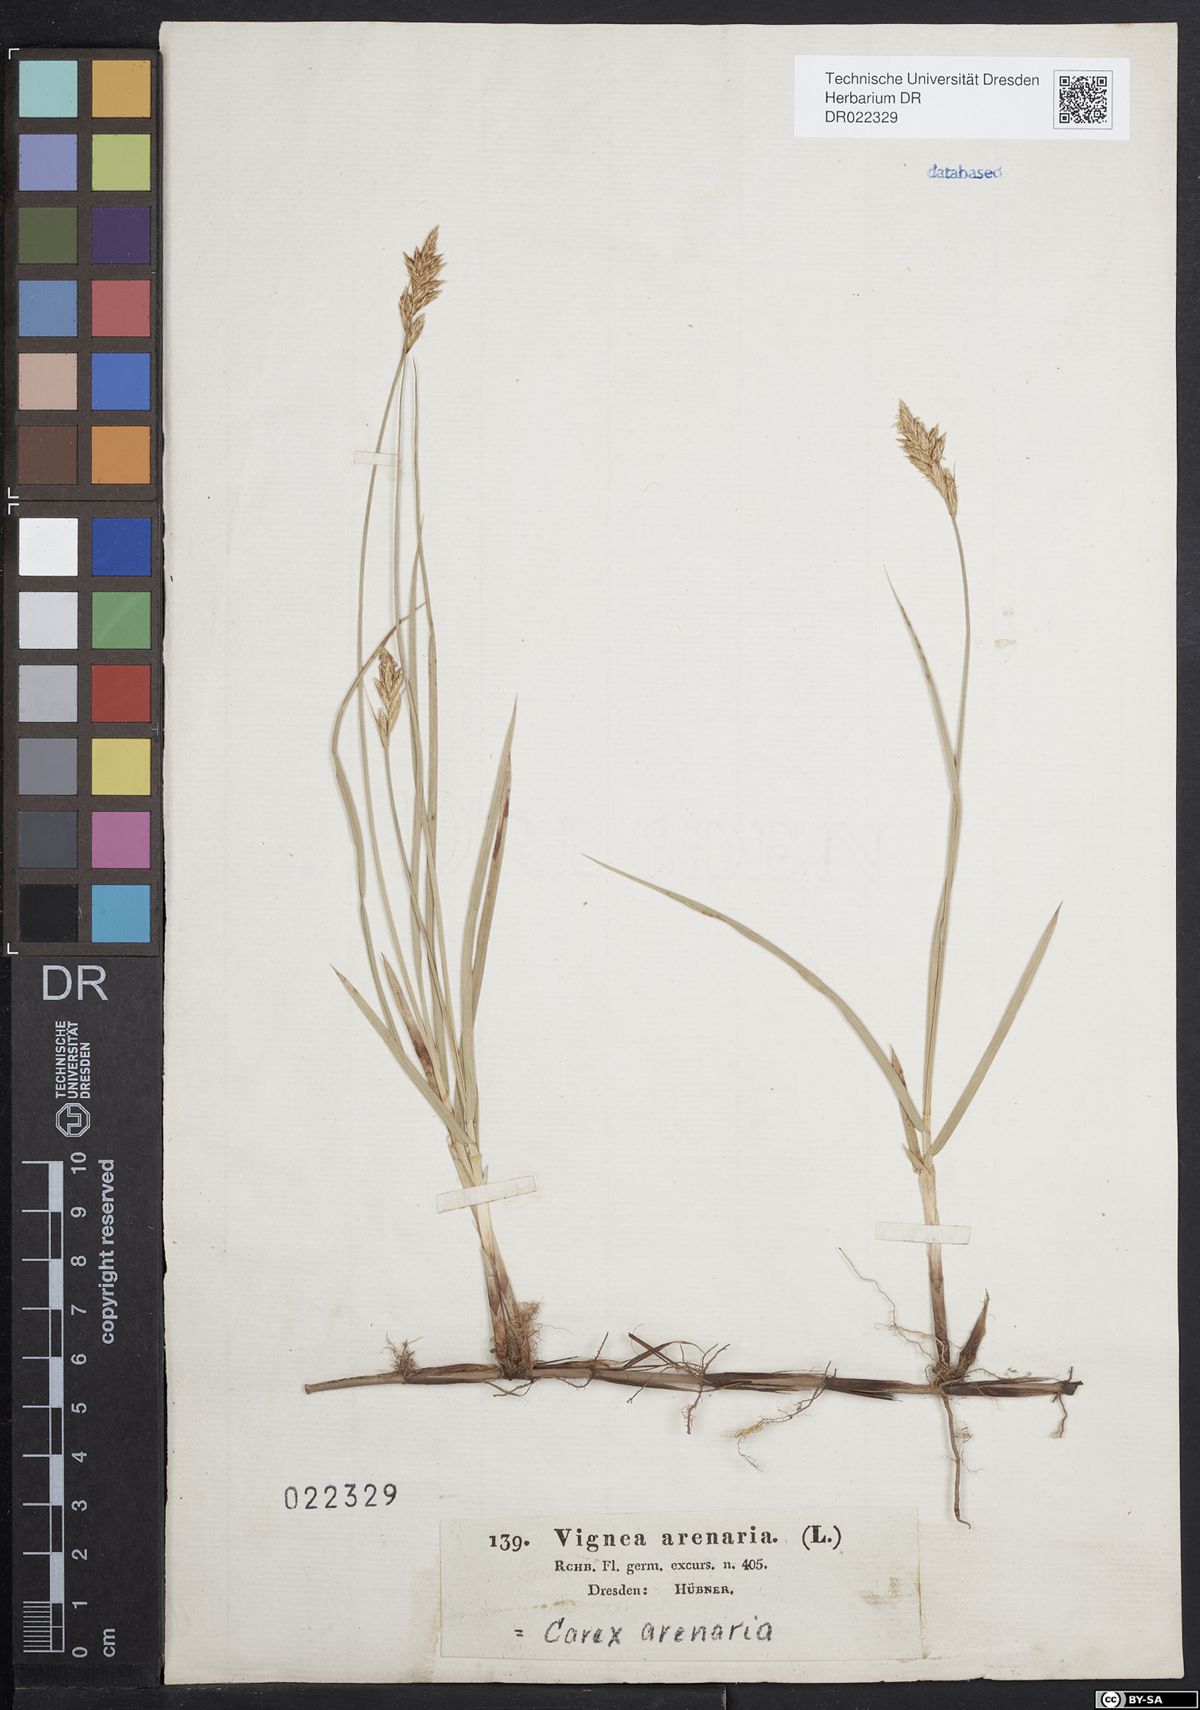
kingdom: Plantae
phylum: Tracheophyta
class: Liliopsida
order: Poales
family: Cyperaceae
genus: Carex
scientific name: Carex arenaria
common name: Sand sedge
